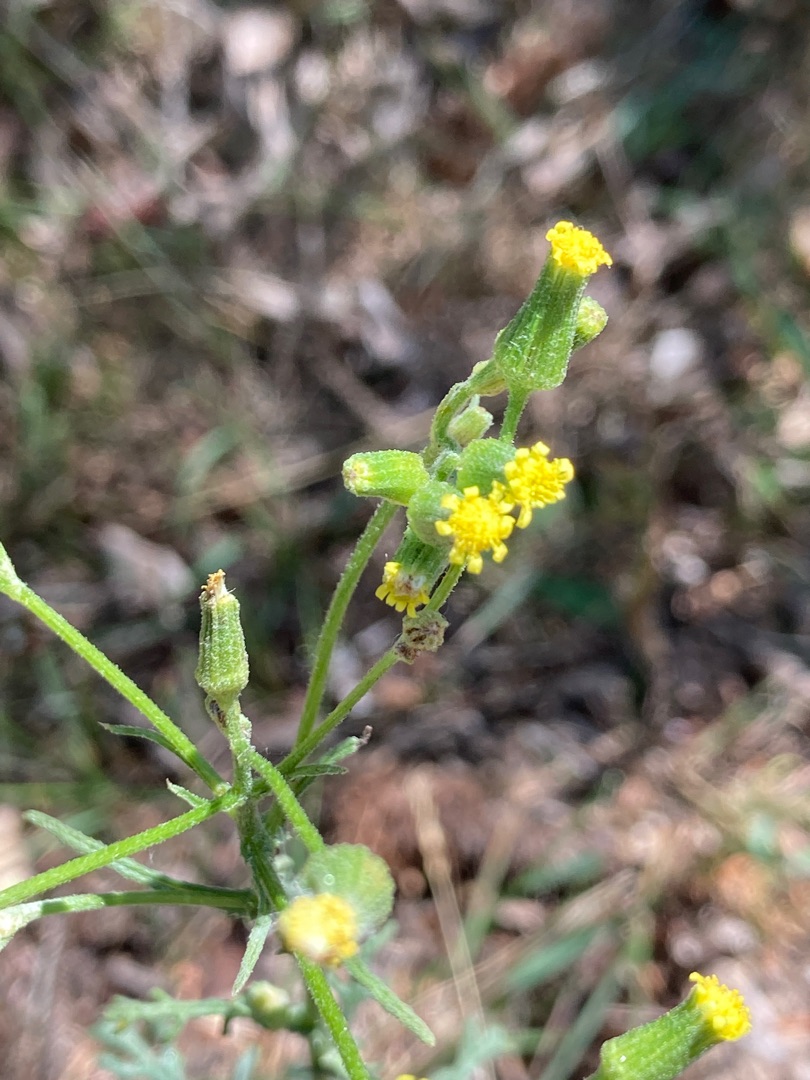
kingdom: Plantae
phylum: Tracheophyta
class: Magnoliopsida
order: Asterales
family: Asteraceae
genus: Senecio
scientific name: Senecio sylvaticus
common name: Skov-brandbæger
